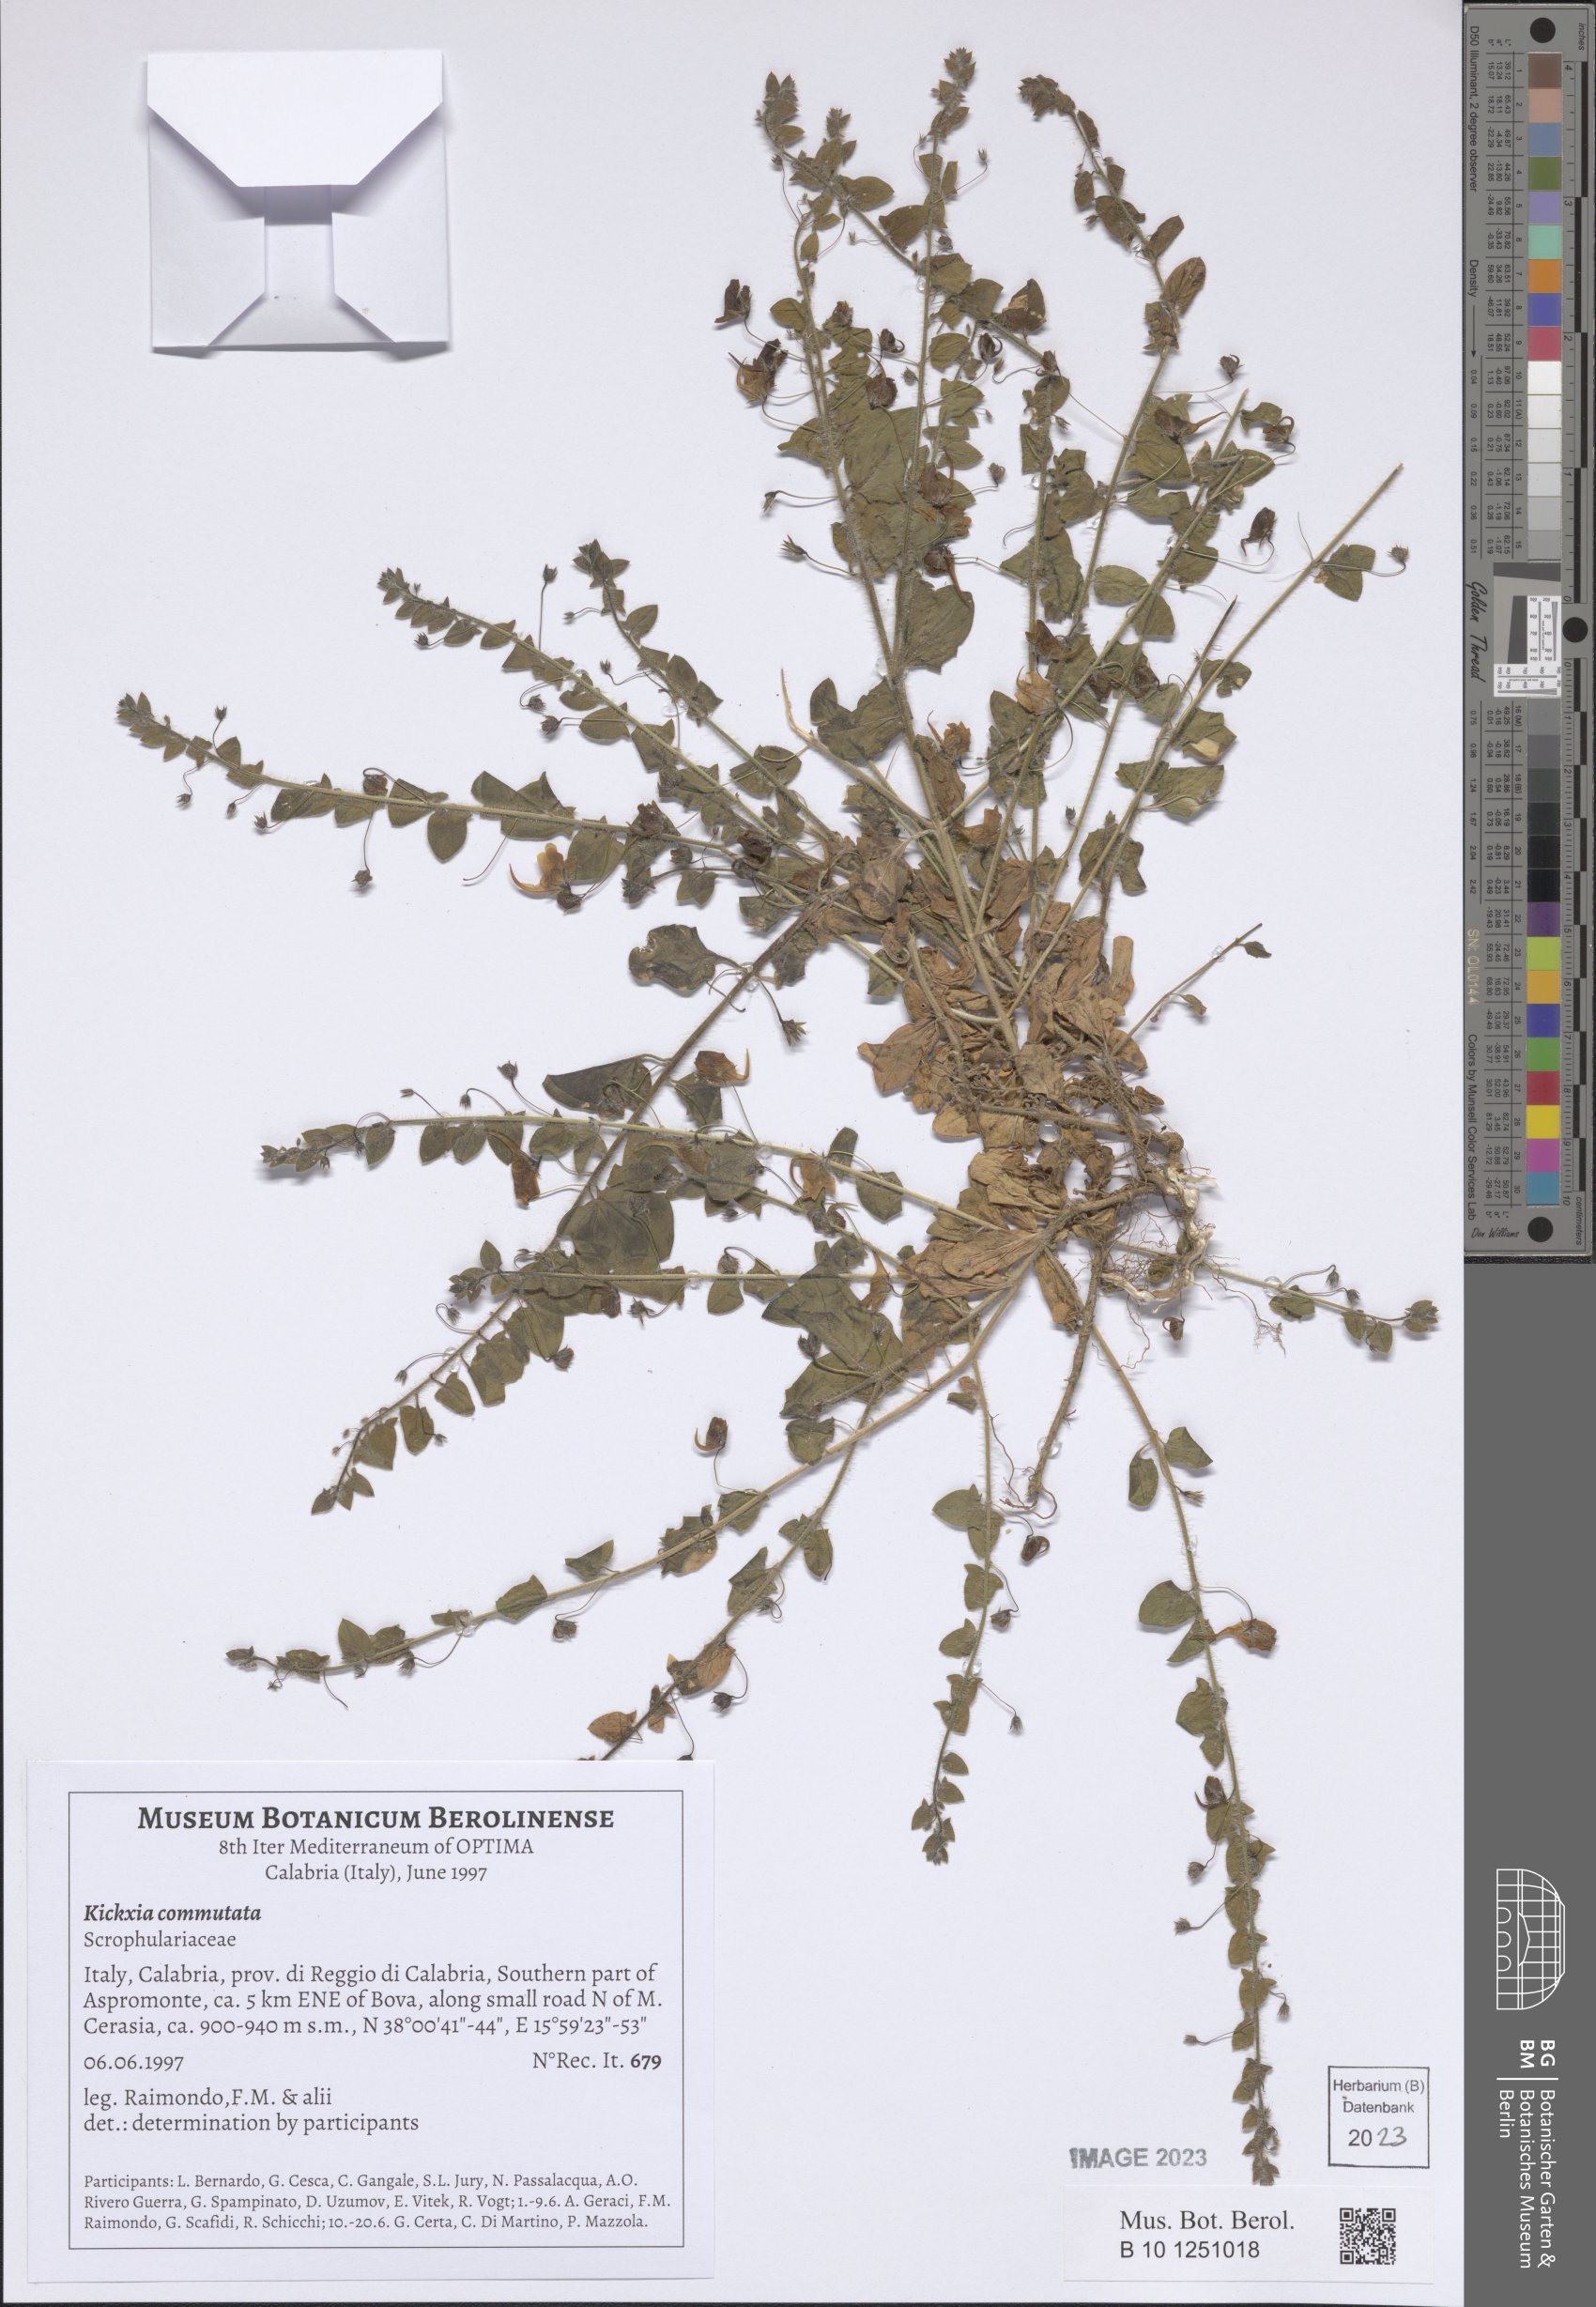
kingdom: Plantae
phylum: Tracheophyta
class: Magnoliopsida
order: Lamiales
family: Plantaginaceae
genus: Kickxia
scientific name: Kickxia commutata
